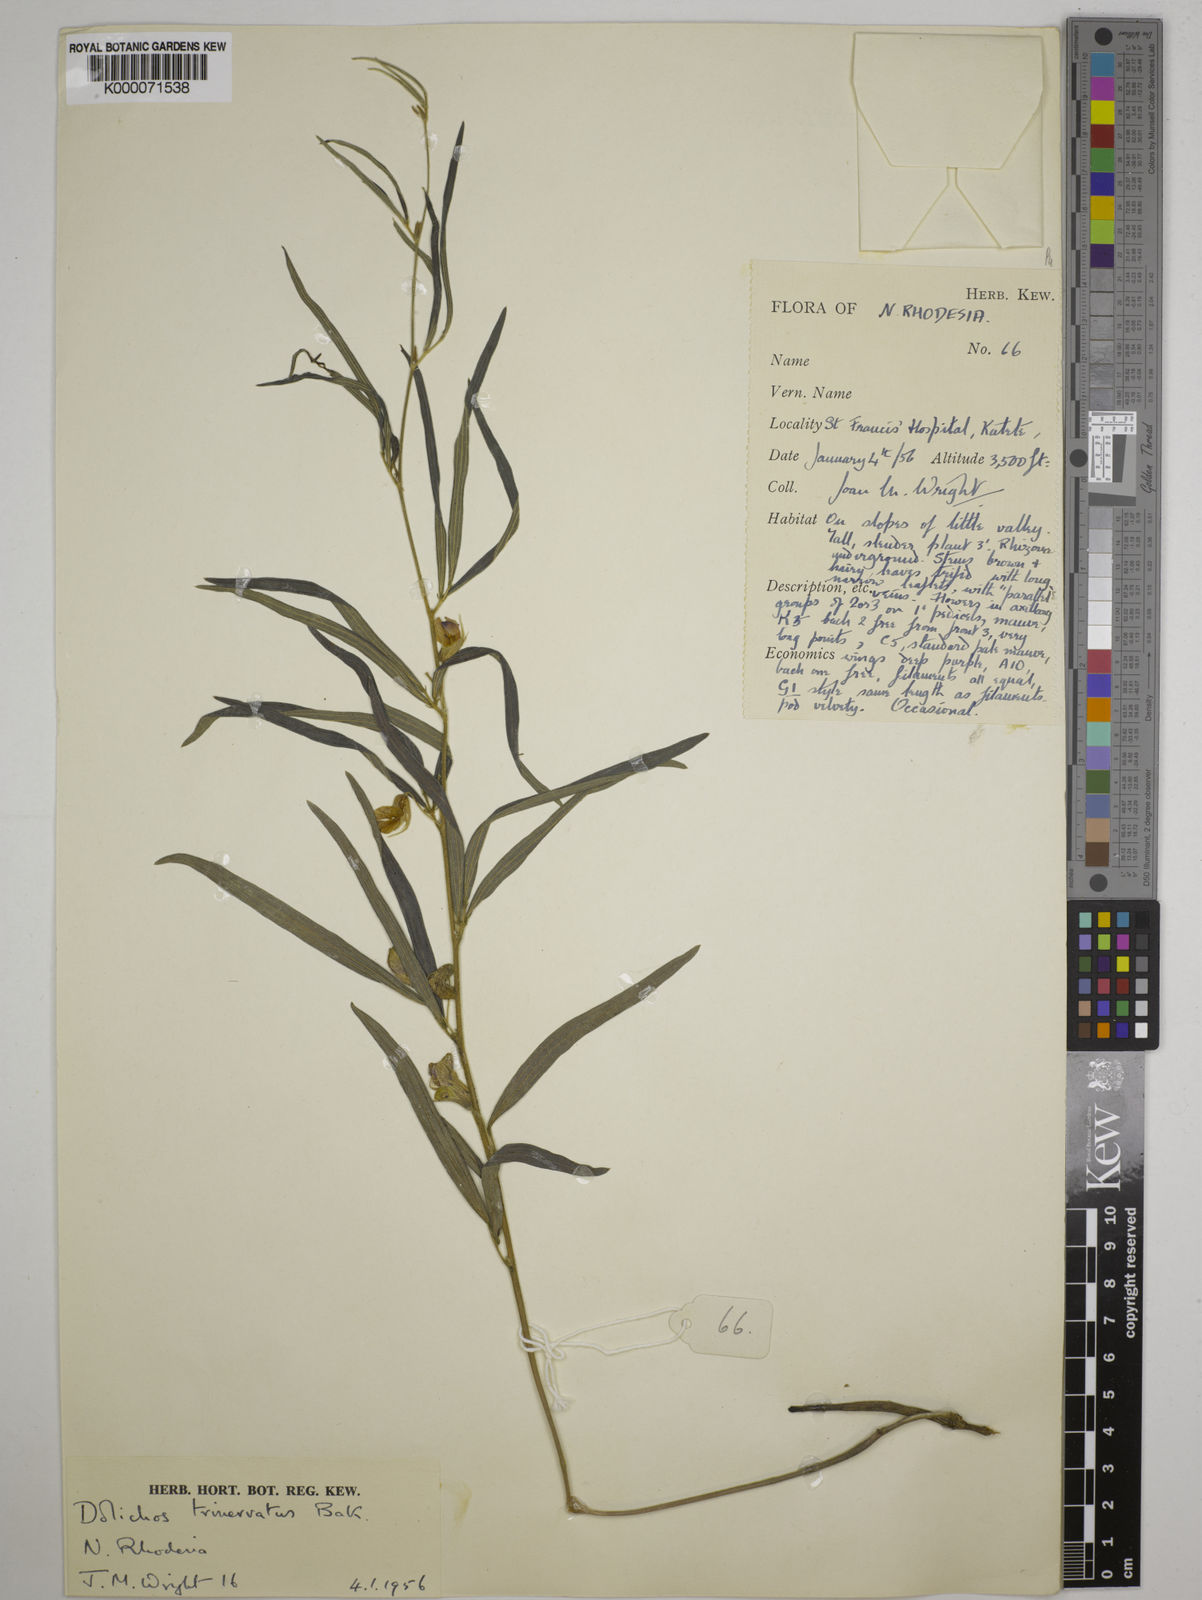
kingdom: Plantae
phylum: Tracheophyta
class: Magnoliopsida
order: Fabales
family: Fabaceae
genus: Dolichos
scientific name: Dolichos trinervatus
